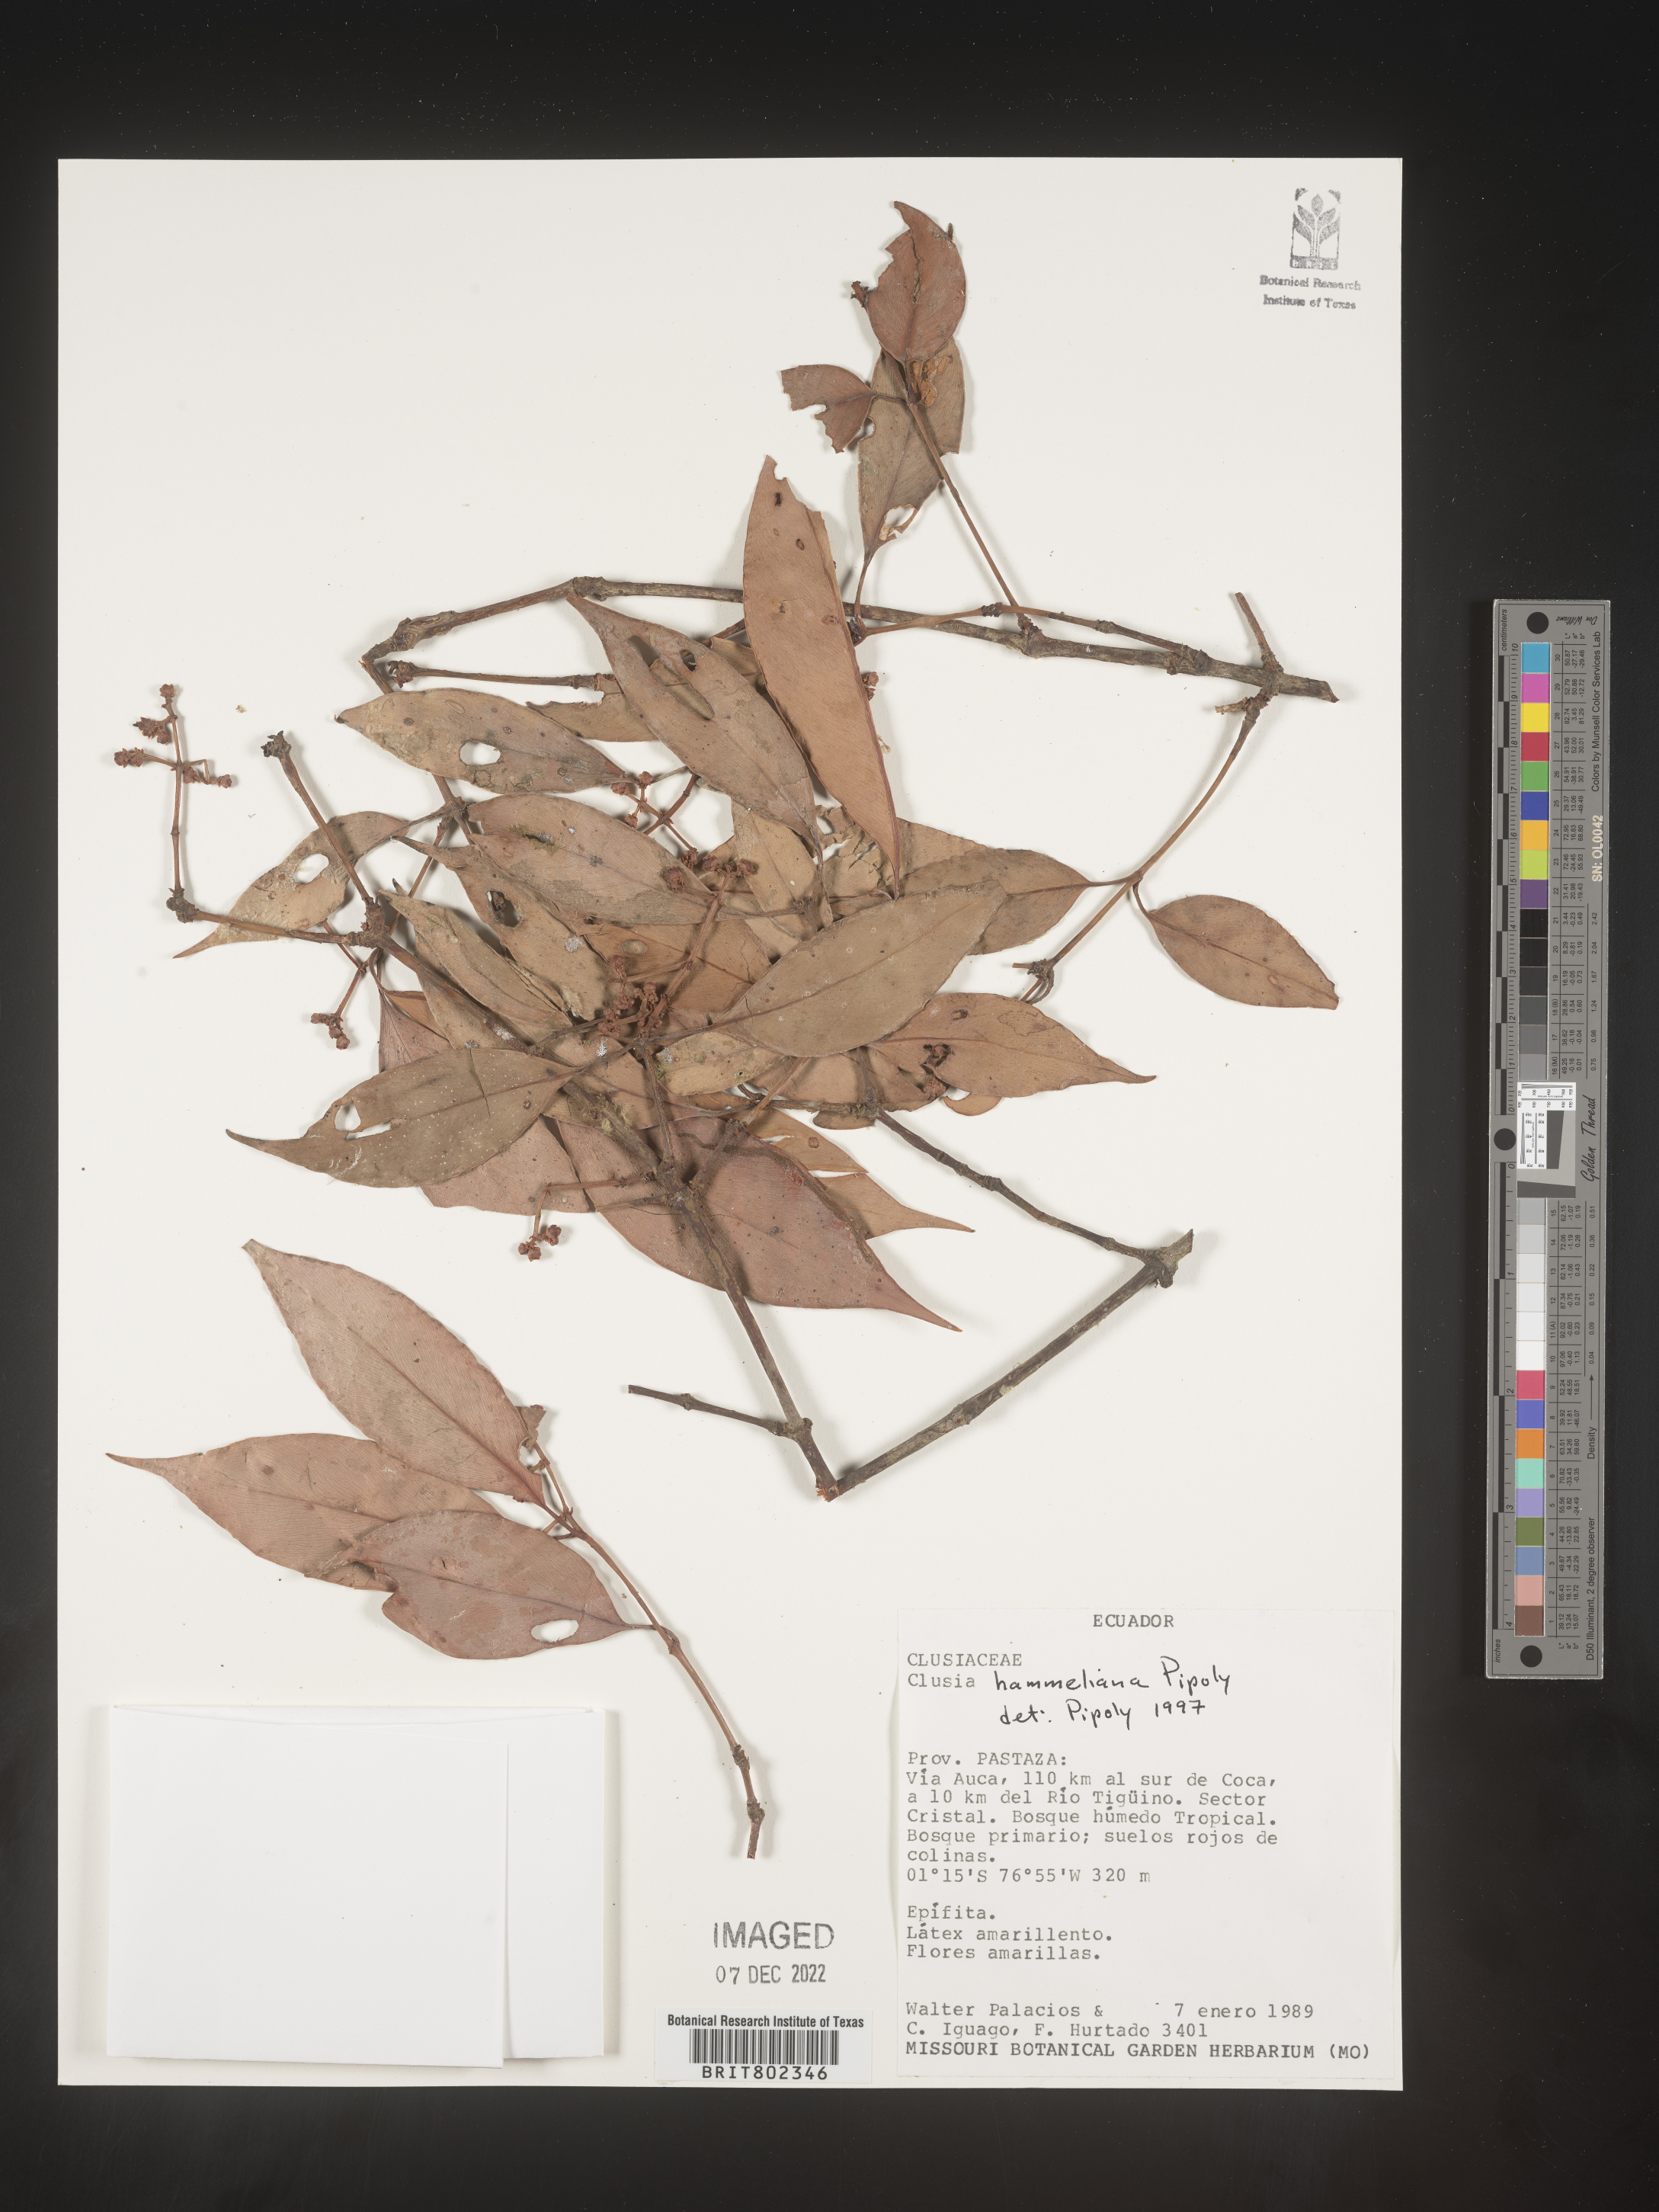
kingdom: Plantae
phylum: Tracheophyta
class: Magnoliopsida
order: Malpighiales
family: Clusiaceae
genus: Clusia
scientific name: Clusia hammeliana
